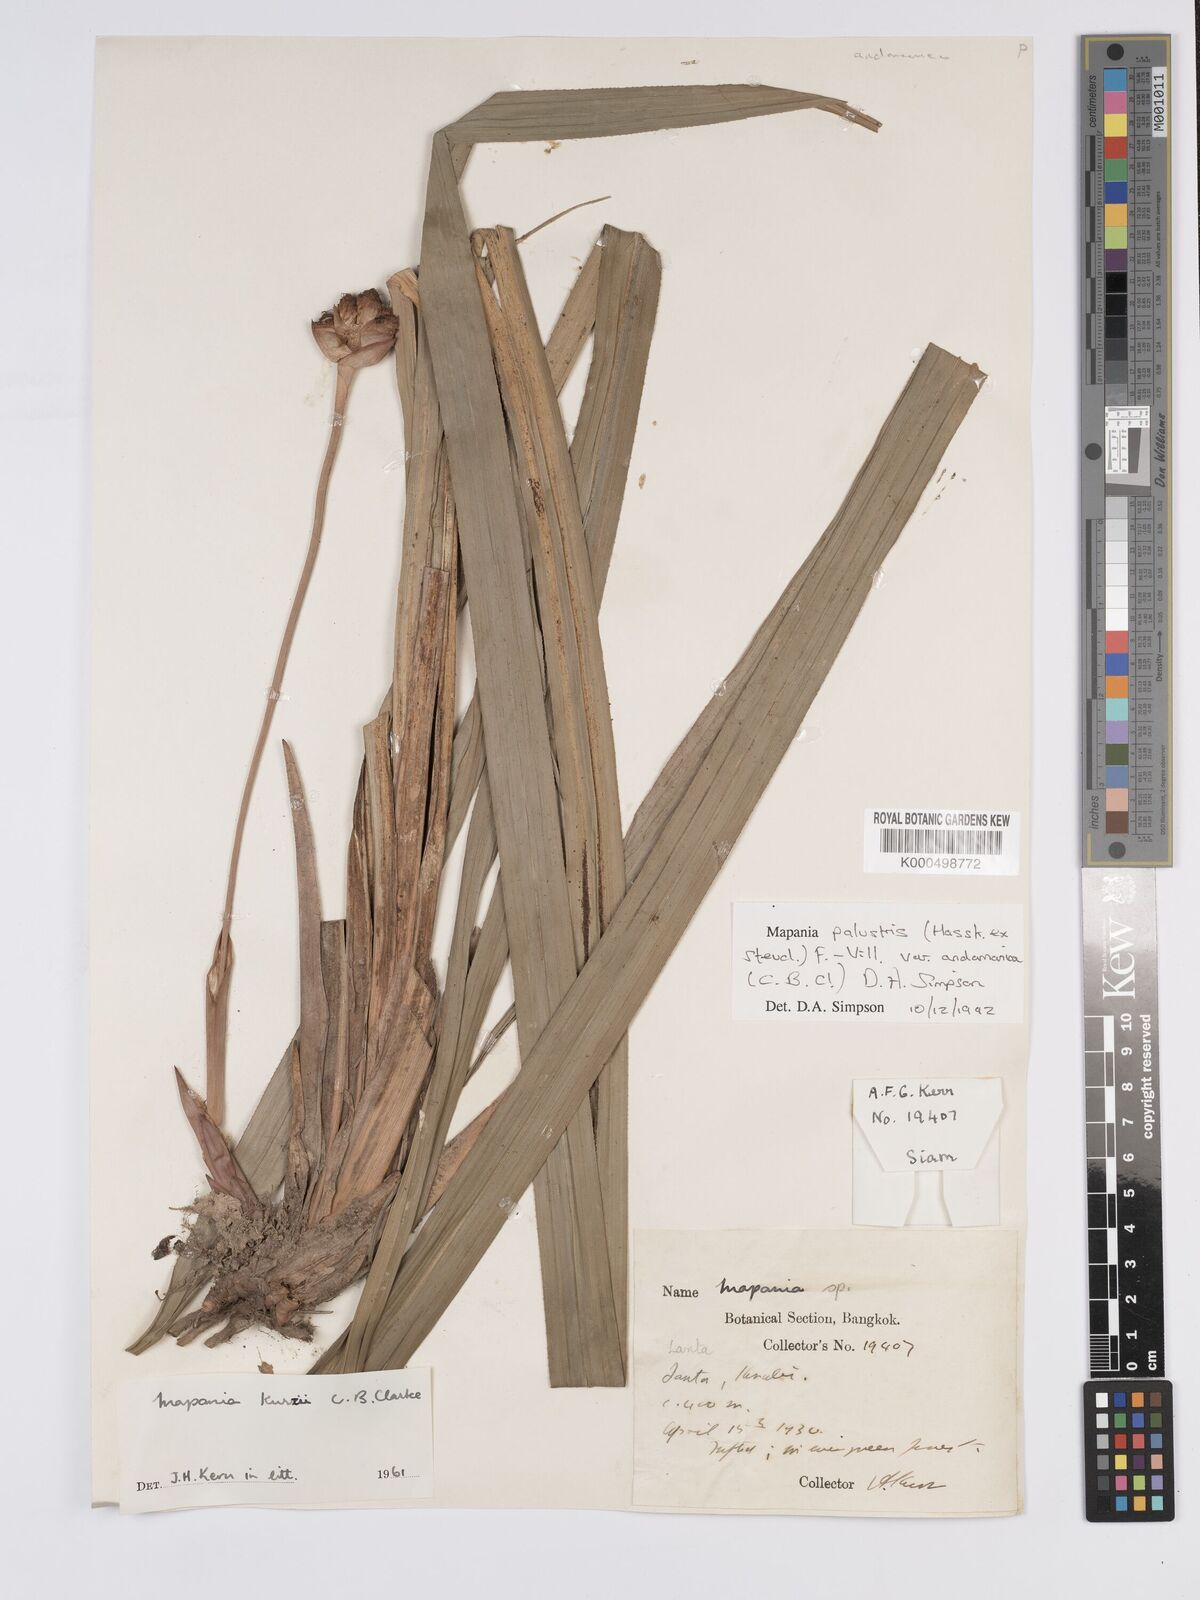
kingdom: Plantae
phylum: Tracheophyta
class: Liliopsida
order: Poales
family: Cyperaceae
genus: Mapania
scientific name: Mapania palustris
